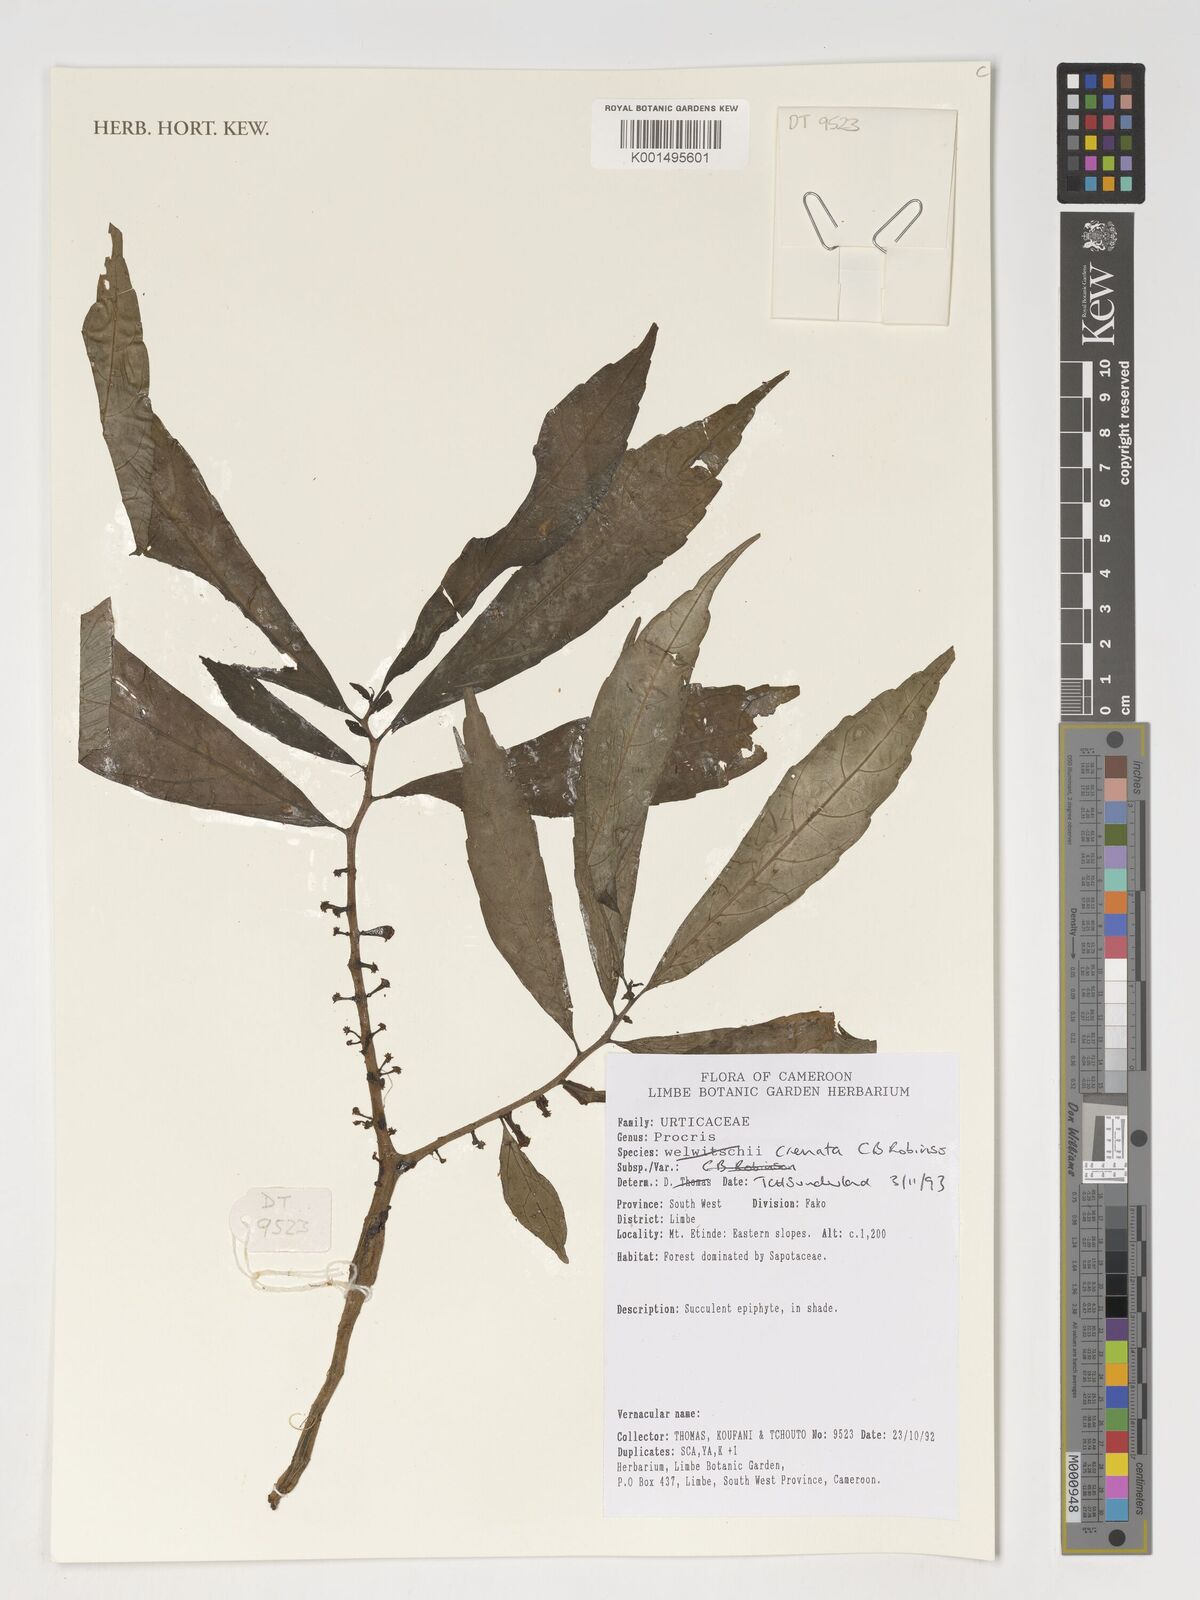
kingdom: Plantae
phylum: Tracheophyta
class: Magnoliopsida
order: Rosales
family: Urticaceae
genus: Procris
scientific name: Procris crenata
